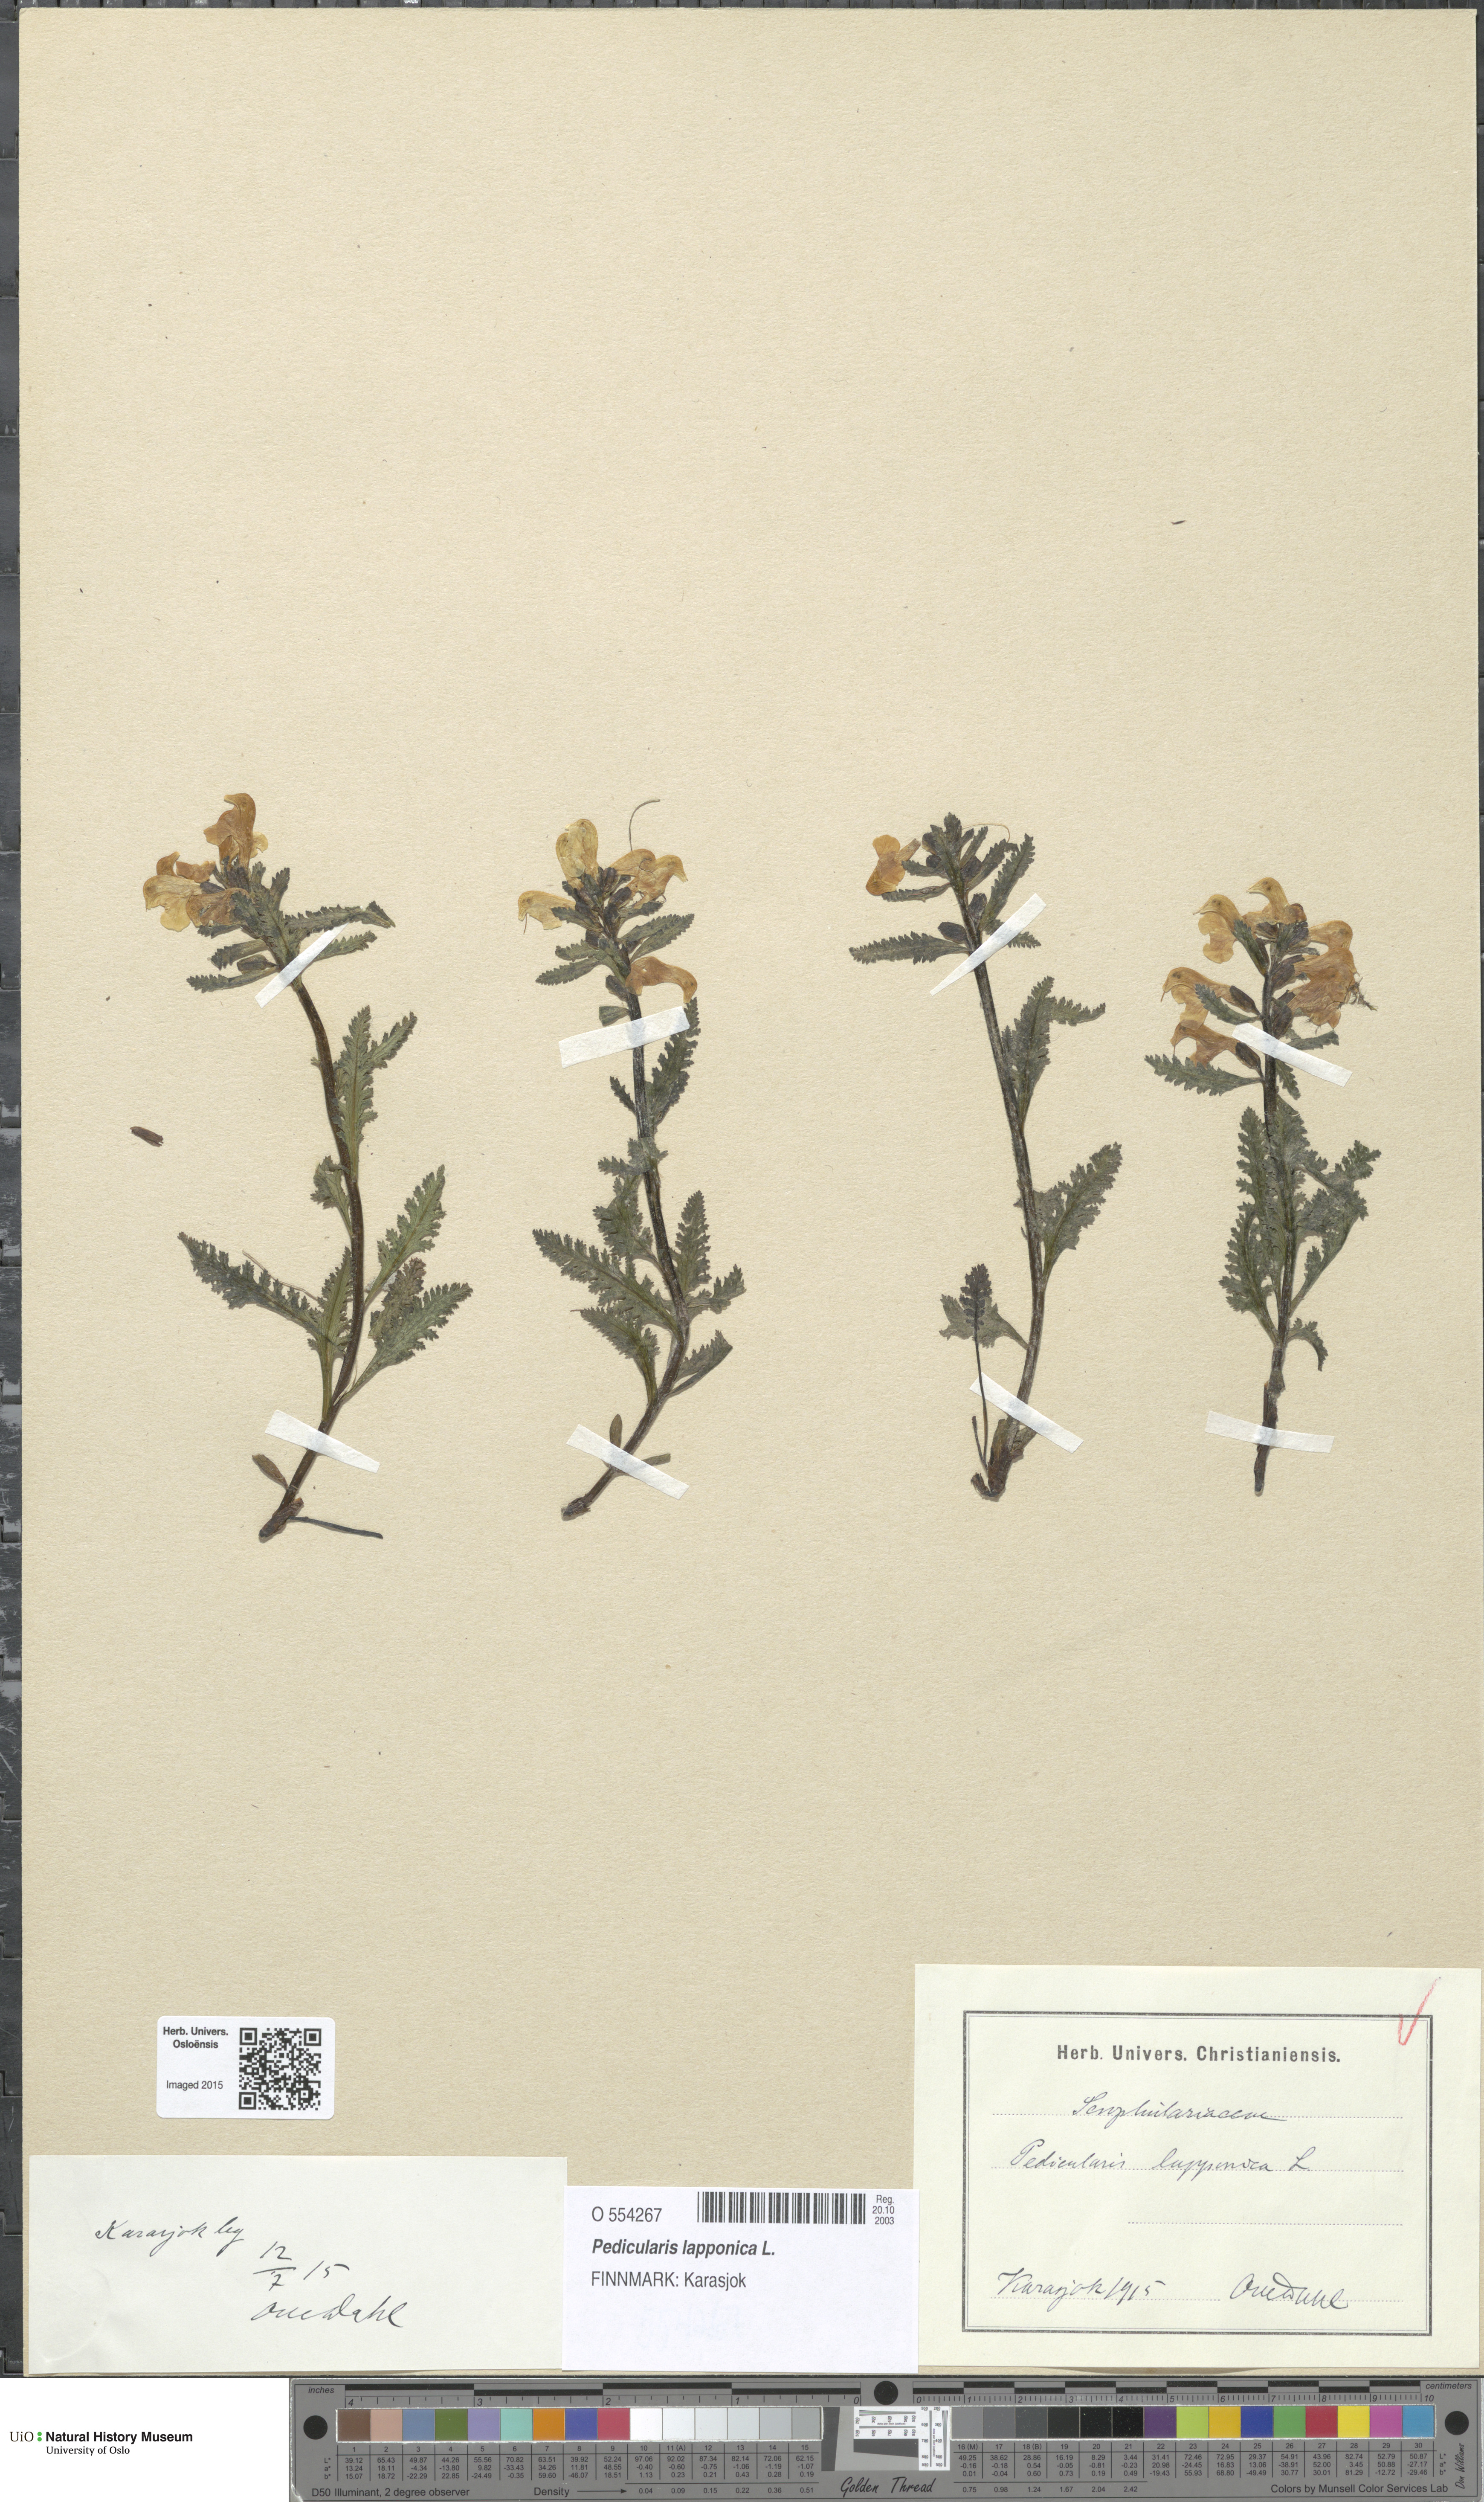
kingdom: Plantae
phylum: Tracheophyta
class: Magnoliopsida
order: Lamiales
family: Orobanchaceae
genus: Pedicularis
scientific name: Pedicularis lapponica
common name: Lapland lousewort
